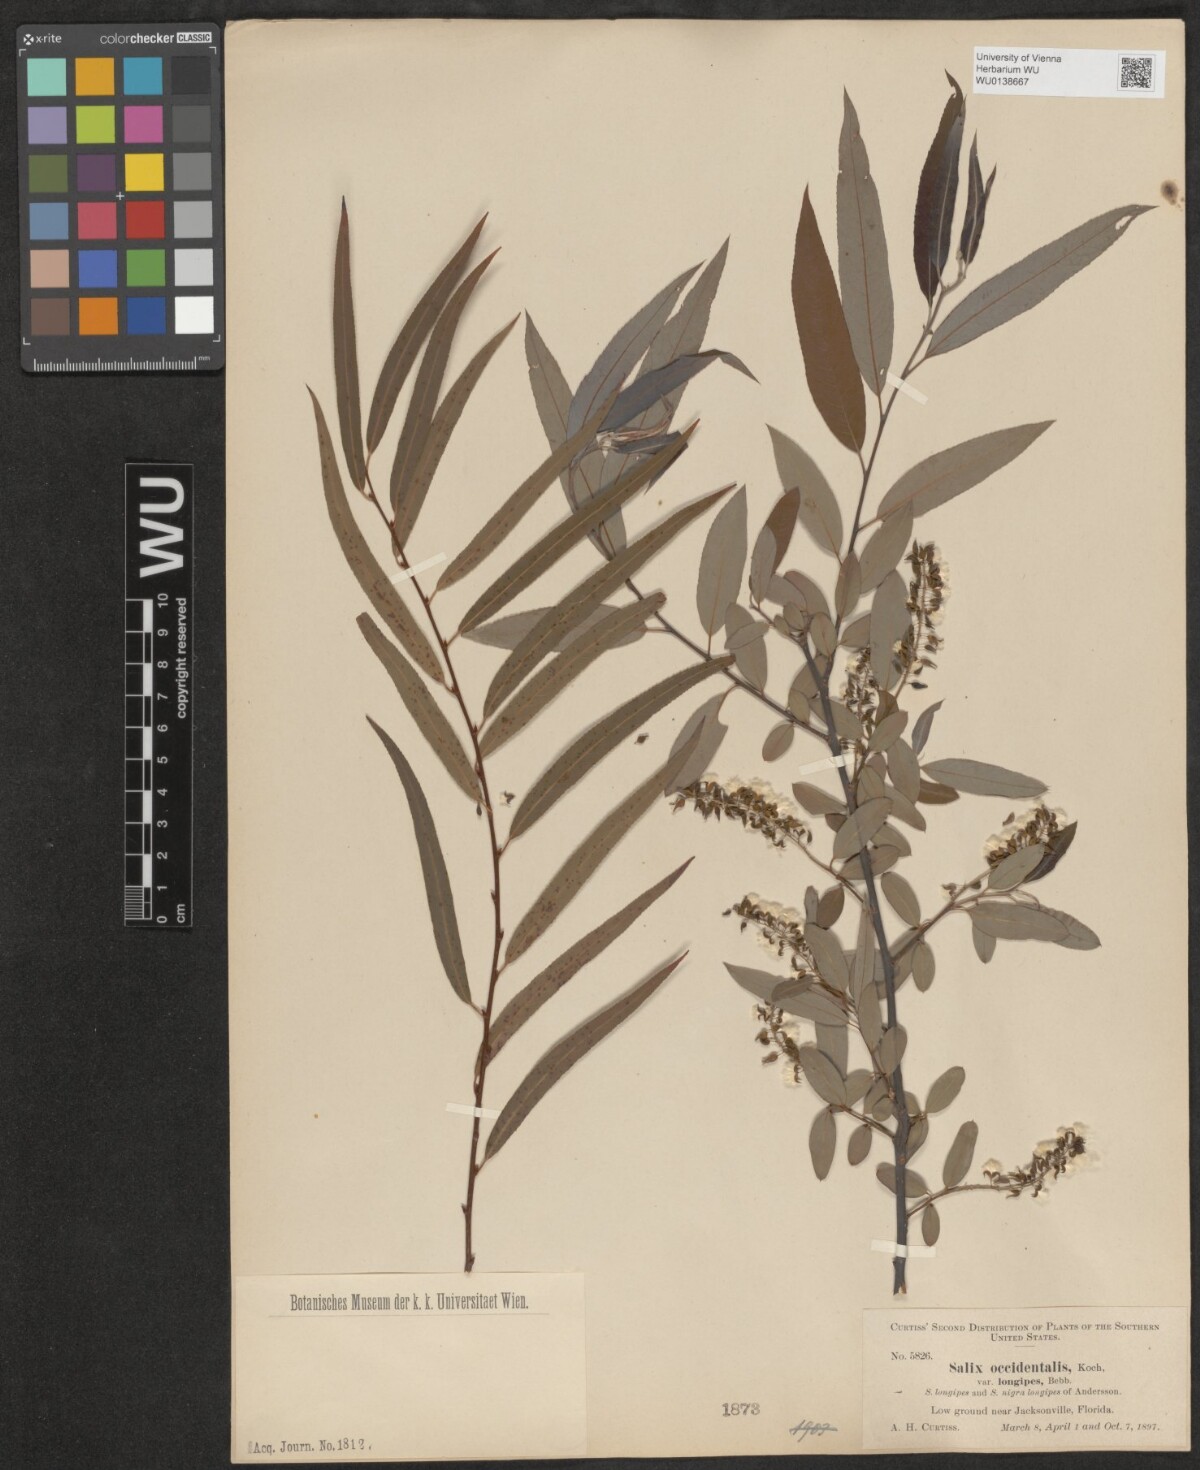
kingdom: Plantae
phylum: Tracheophyta
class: Magnoliopsida
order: Malpighiales
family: Salicaceae
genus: Salix
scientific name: Salix humilis
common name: Prairie willow
